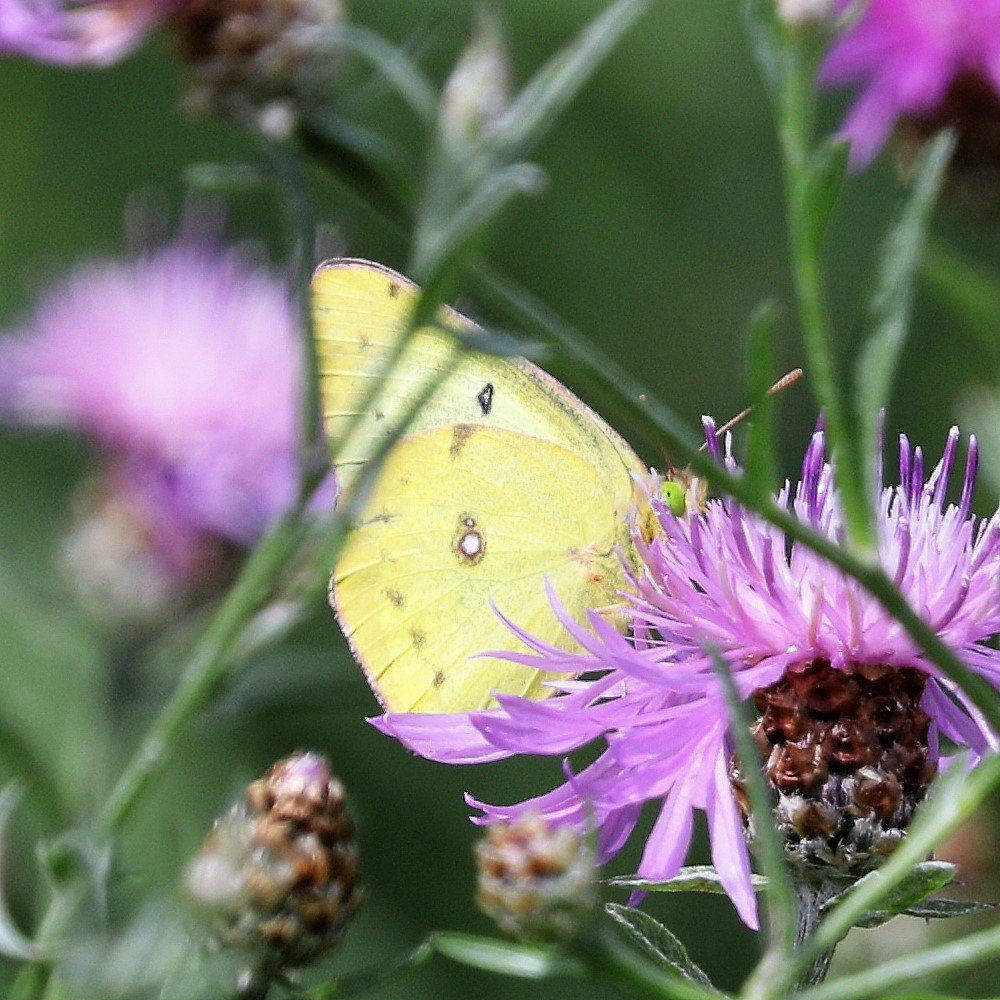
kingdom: Animalia
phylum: Arthropoda
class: Insecta
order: Lepidoptera
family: Pieridae
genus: Colias
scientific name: Colias philodice
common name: Clouded Sulphur
